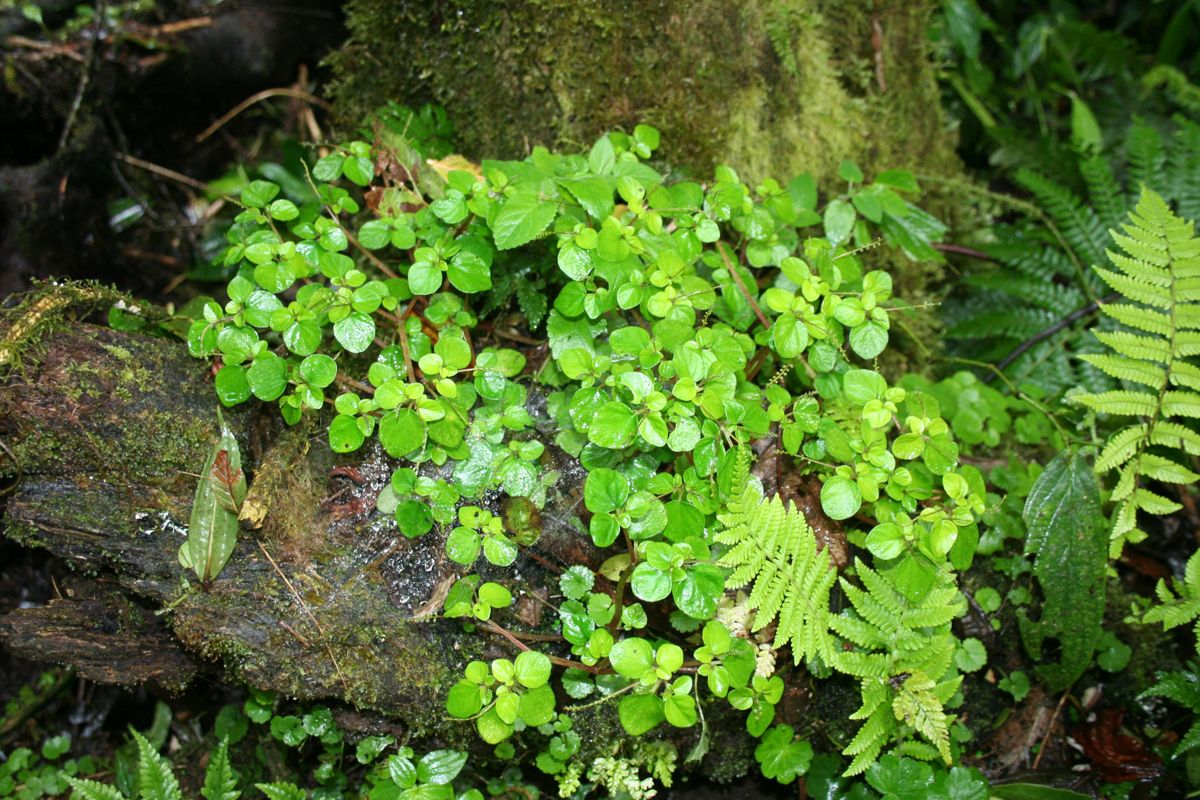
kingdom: Plantae
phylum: Tracheophyta
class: Magnoliopsida
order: Piperales
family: Piperaceae
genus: Peperomia
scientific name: Peperomia
